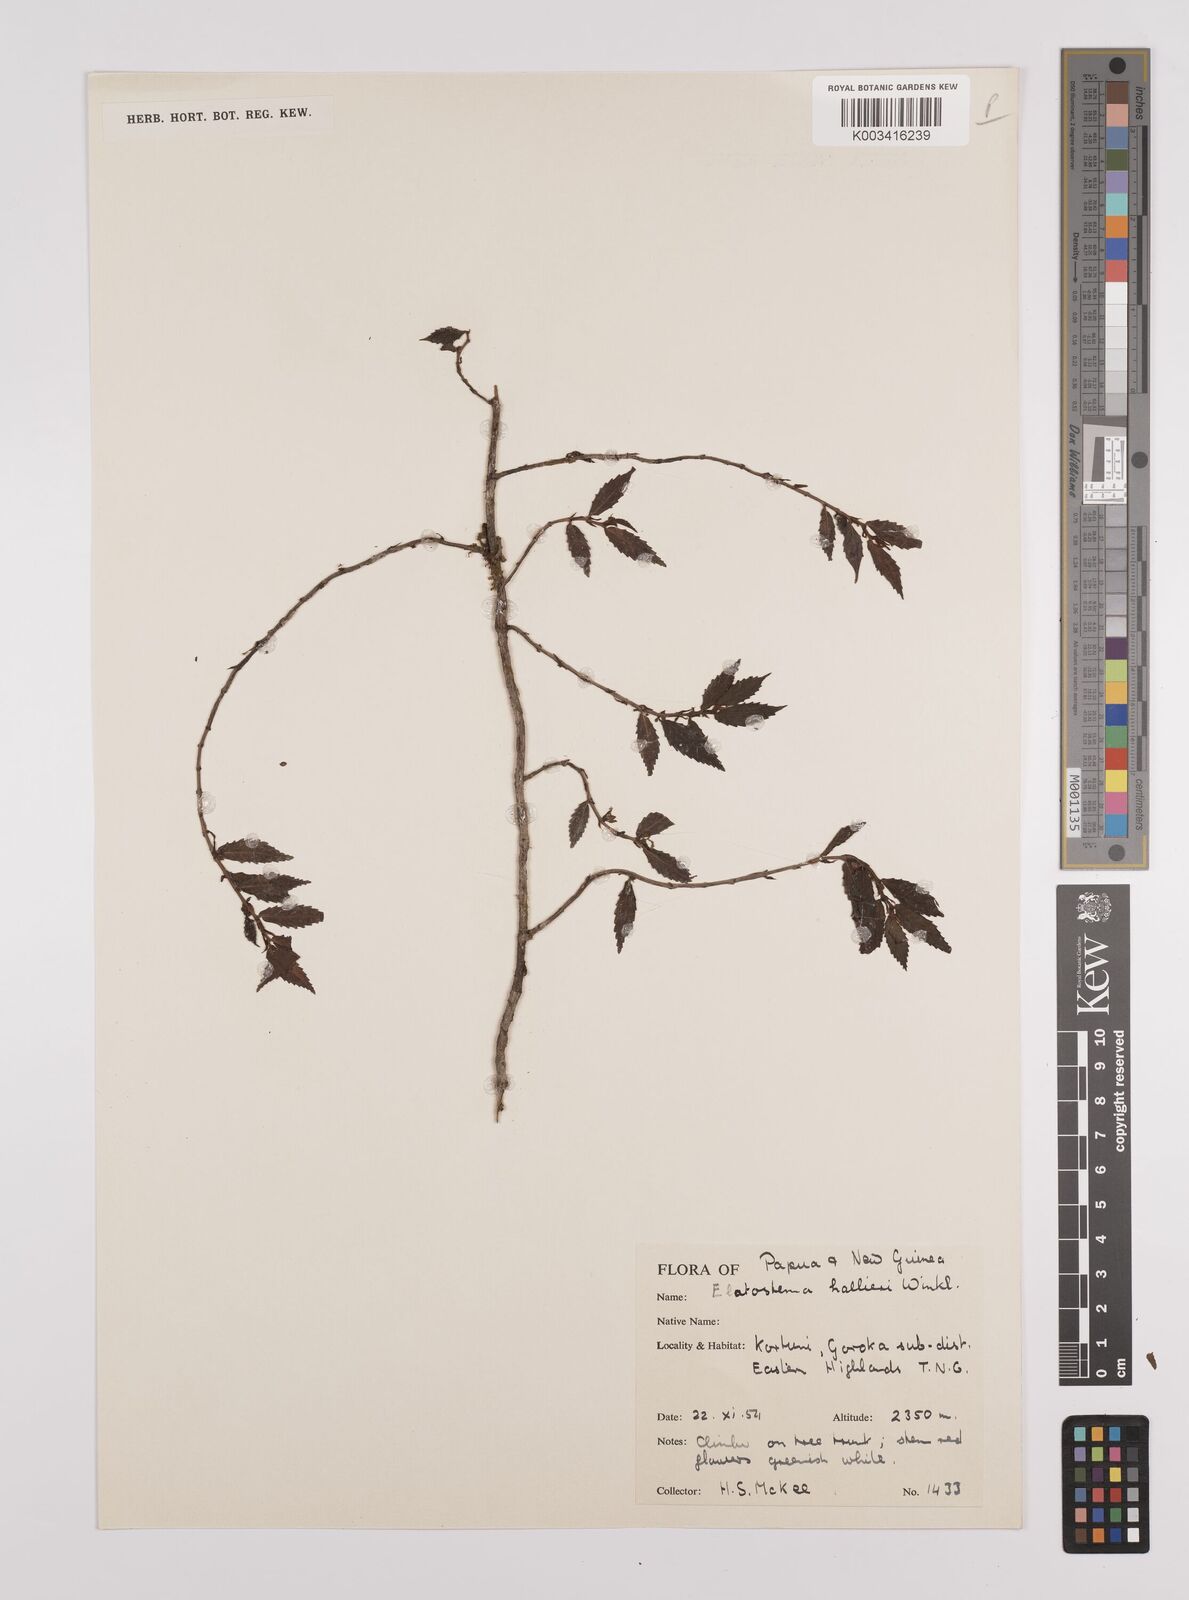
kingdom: Plantae
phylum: Tracheophyta
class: Magnoliopsida
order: Rosales
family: Urticaceae
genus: Elatostema
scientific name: Elatostema hallieri
